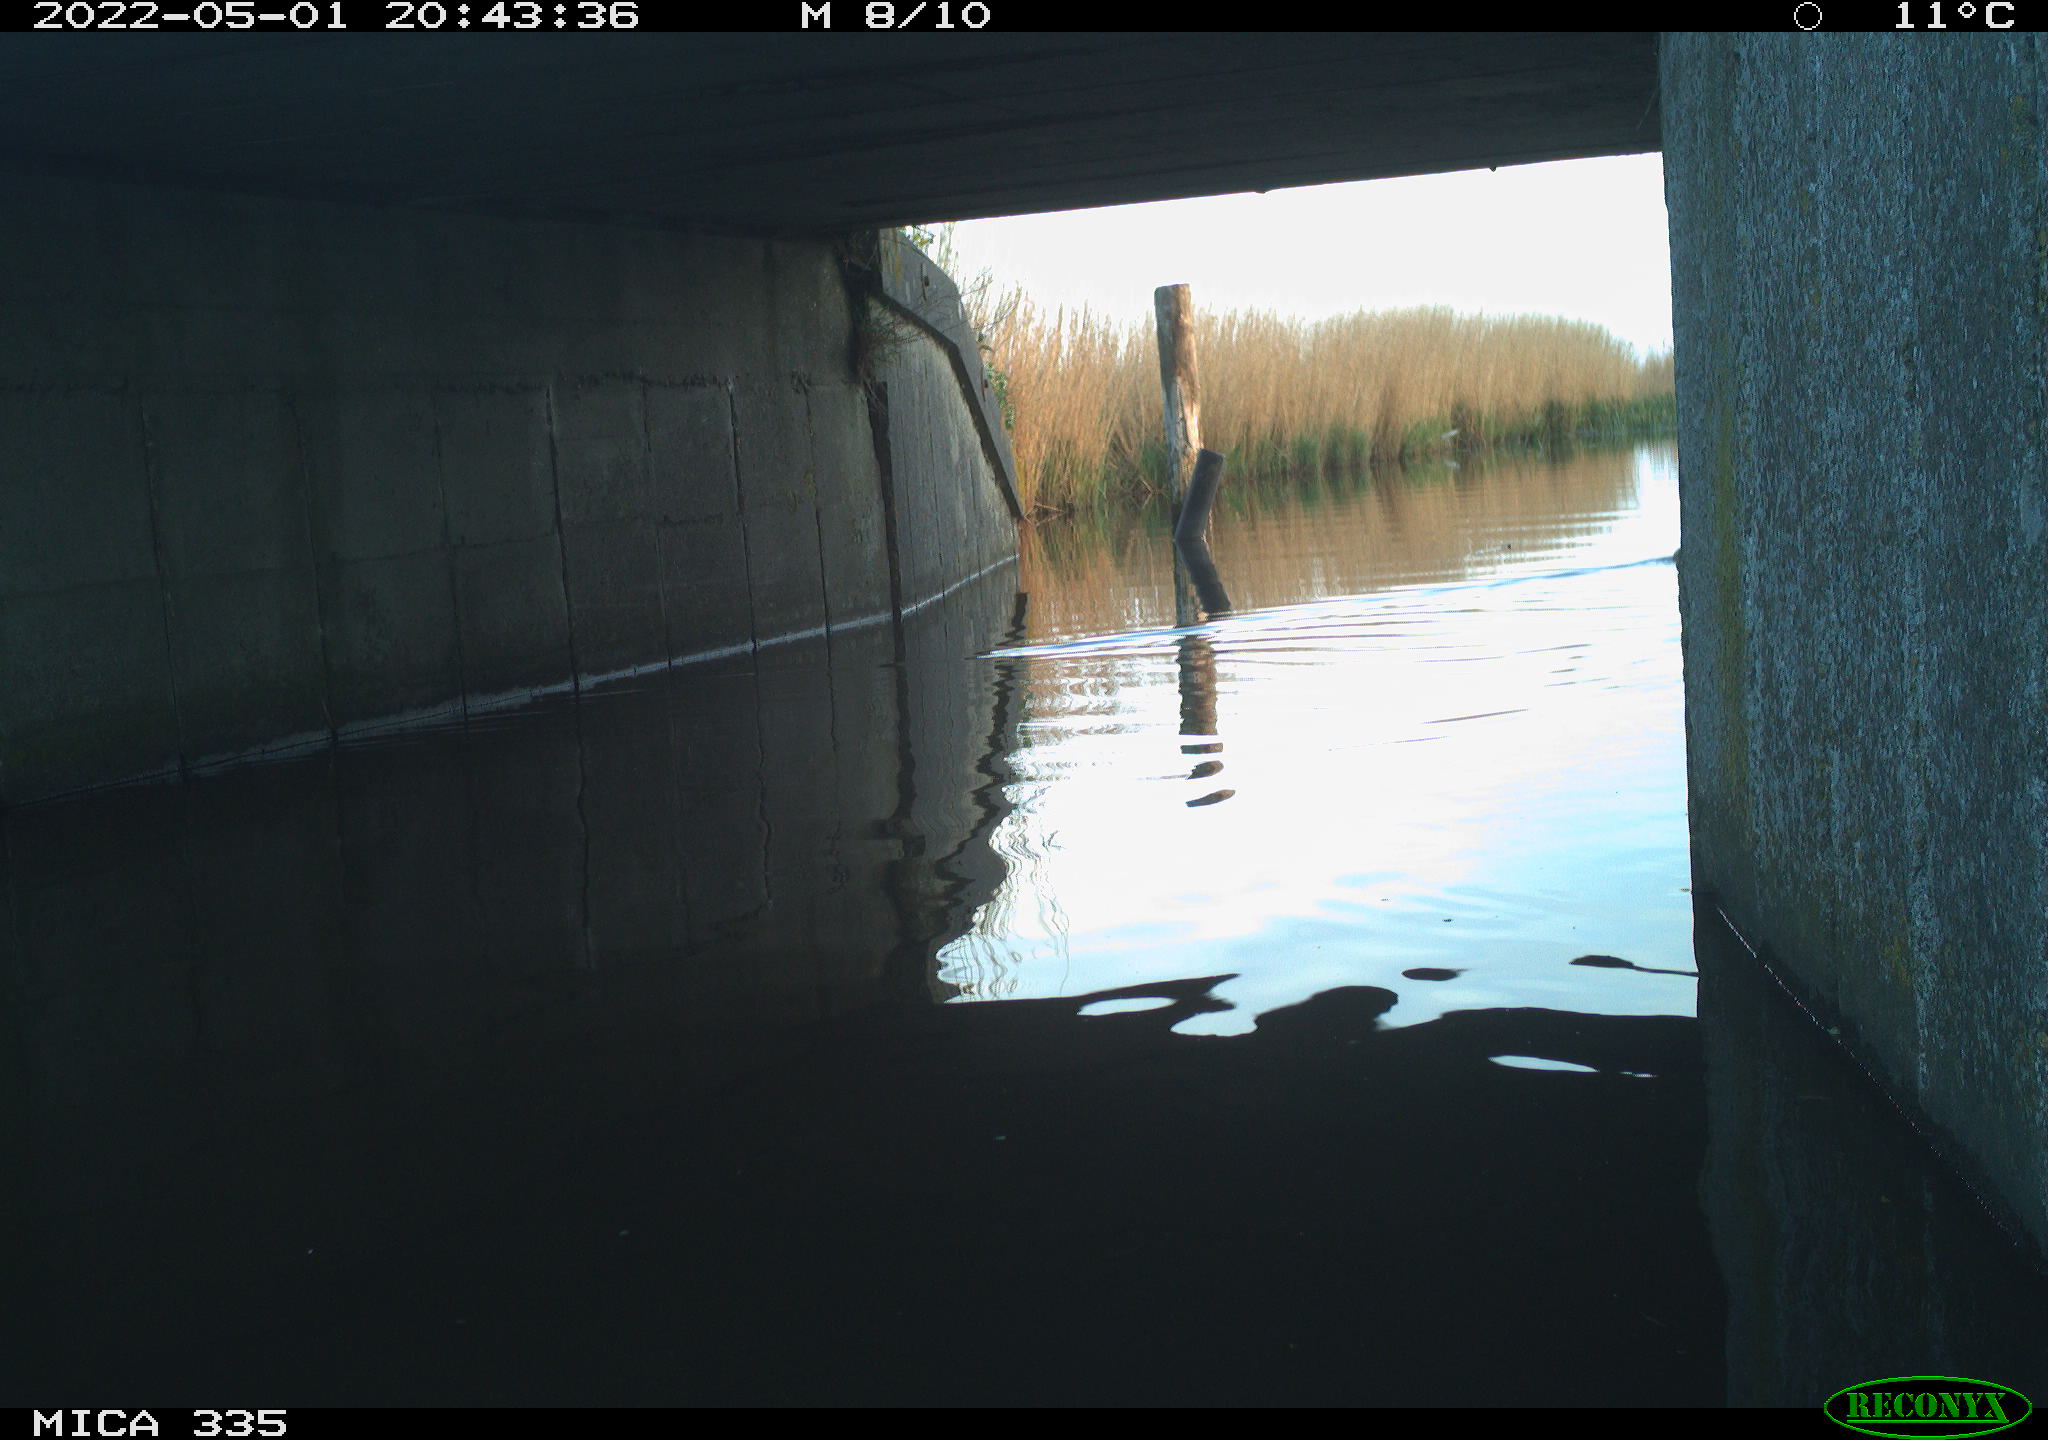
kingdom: Animalia
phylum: Chordata
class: Aves
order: Anseriformes
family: Anatidae
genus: Anas
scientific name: Anas platyrhynchos
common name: Mallard
